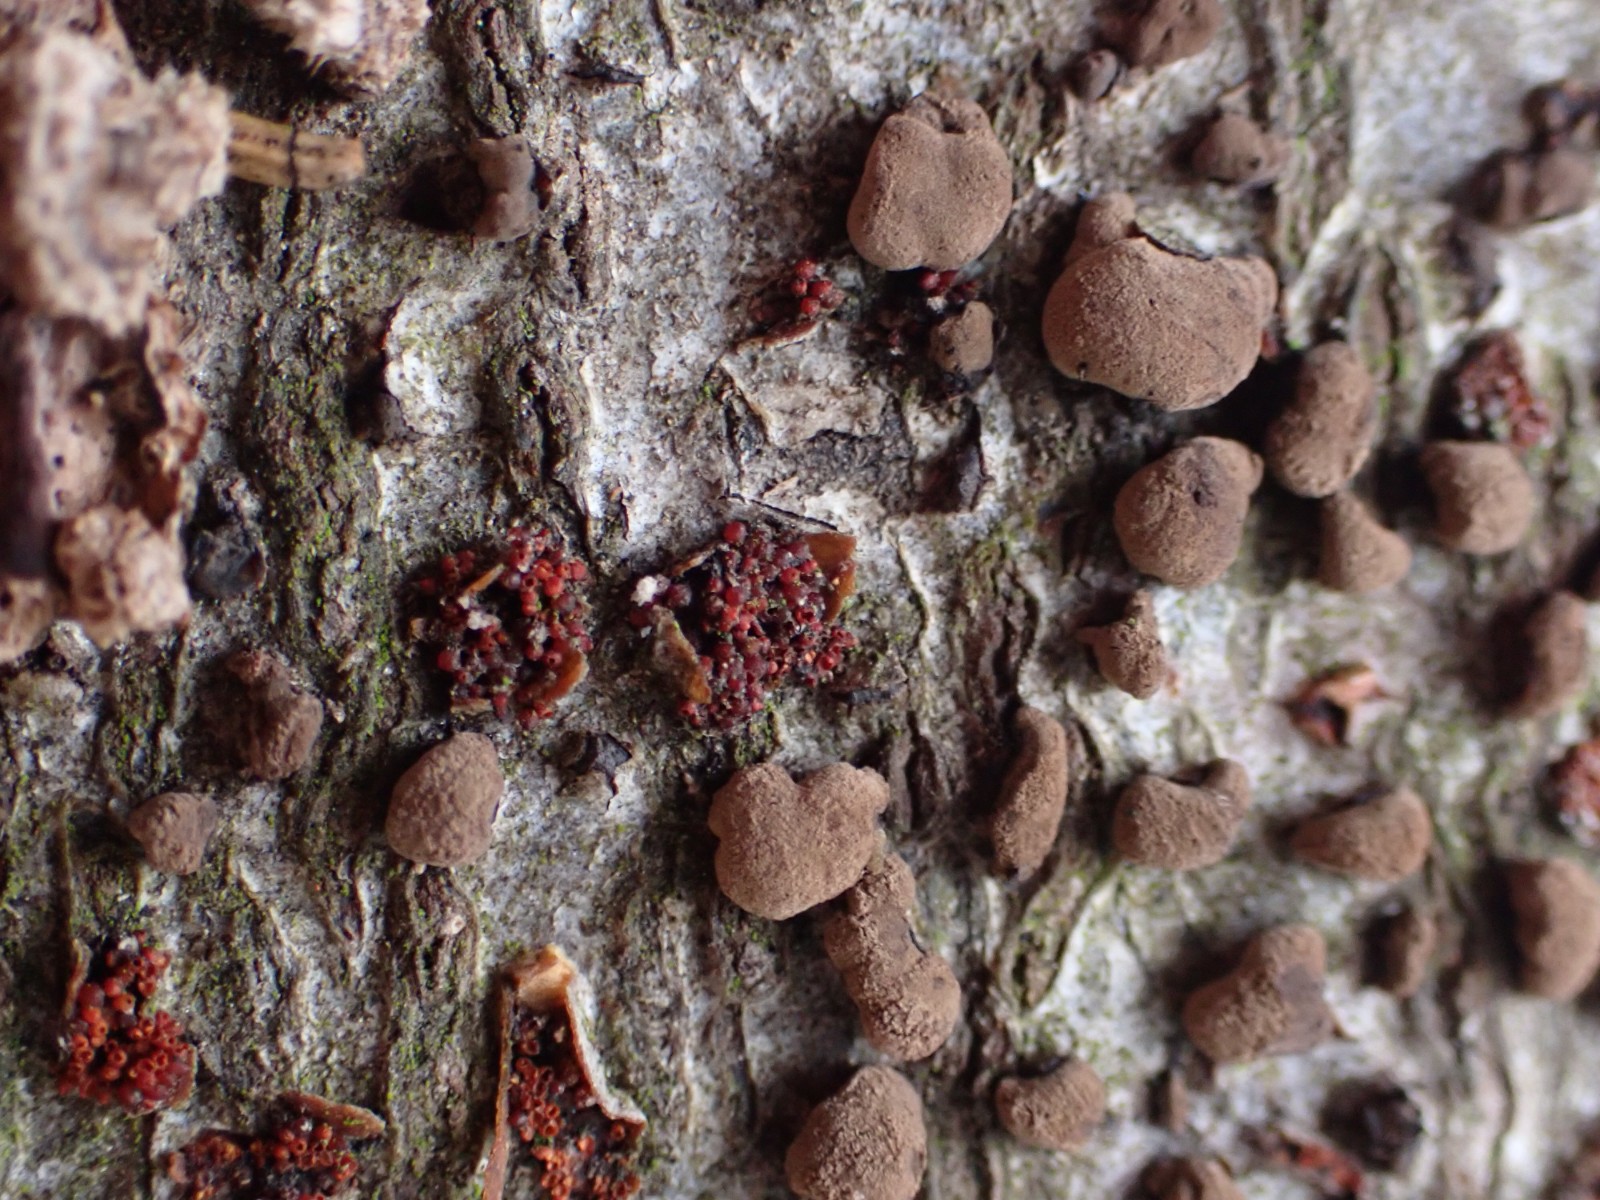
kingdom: Fungi
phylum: Ascomycota
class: Sordariomycetes
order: Xylariales
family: Hypoxylaceae
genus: Hypoxylon
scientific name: Hypoxylon fragiforme
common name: kuljordbær
